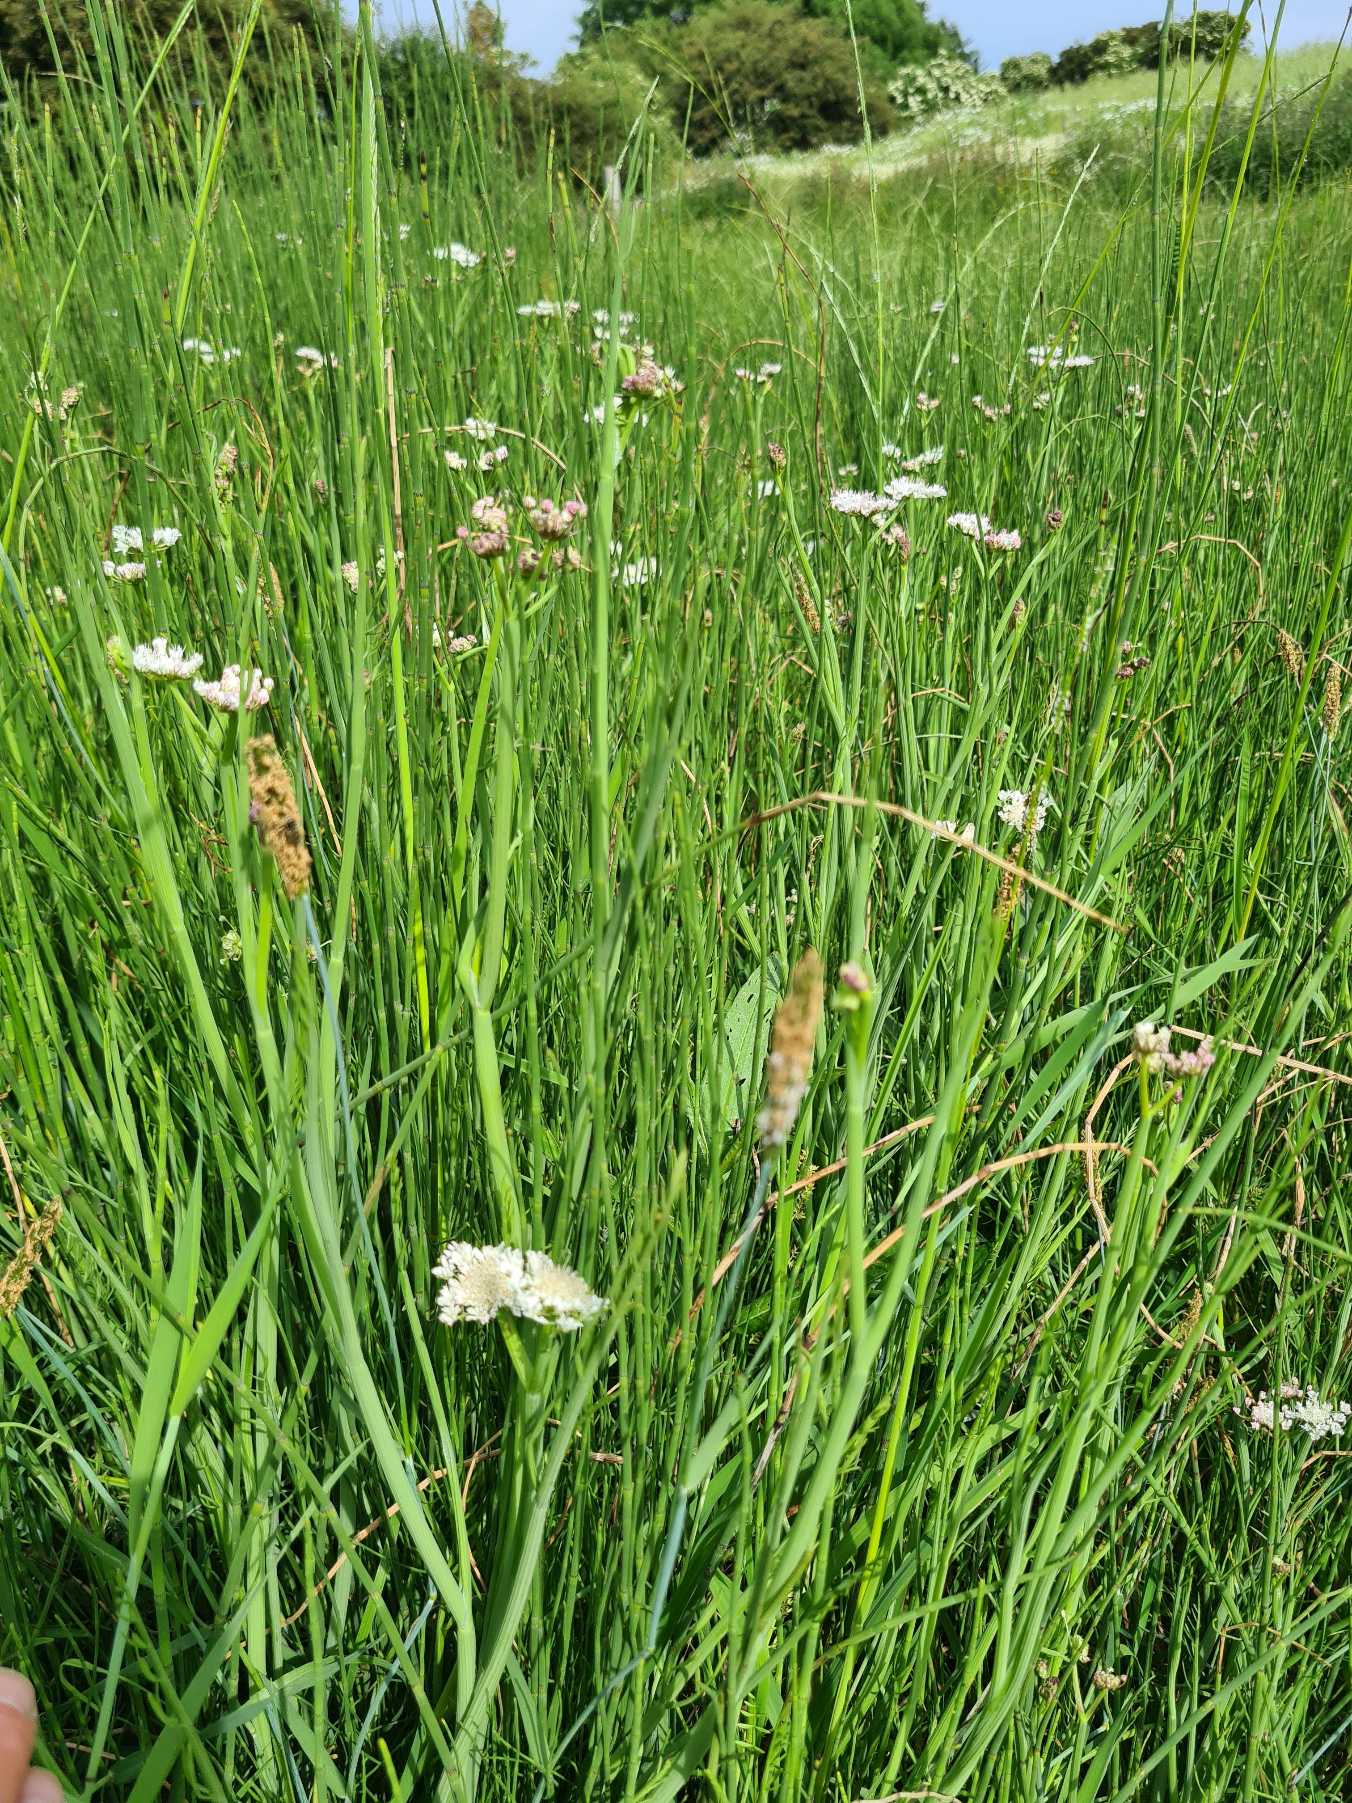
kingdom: Plantae
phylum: Tracheophyta
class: Magnoliopsida
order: Apiales
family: Apiaceae
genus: Oenanthe
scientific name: Oenanthe fistulosa
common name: Vand-klaseskærm
